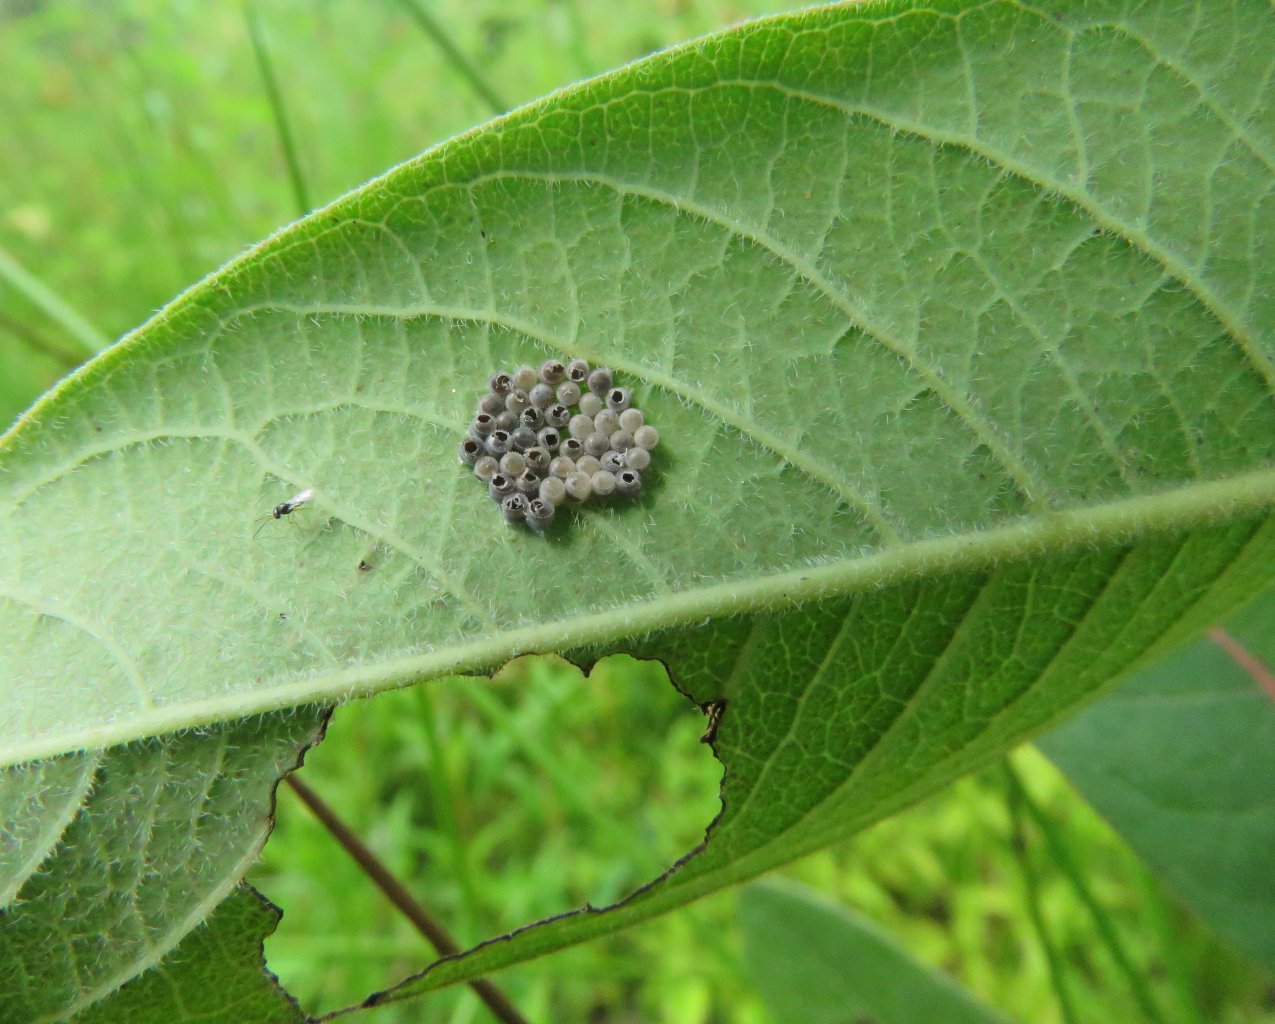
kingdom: Animalia
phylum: Arthropoda
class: Insecta
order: Lepidoptera
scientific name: Lepidoptera
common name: Butterflies
